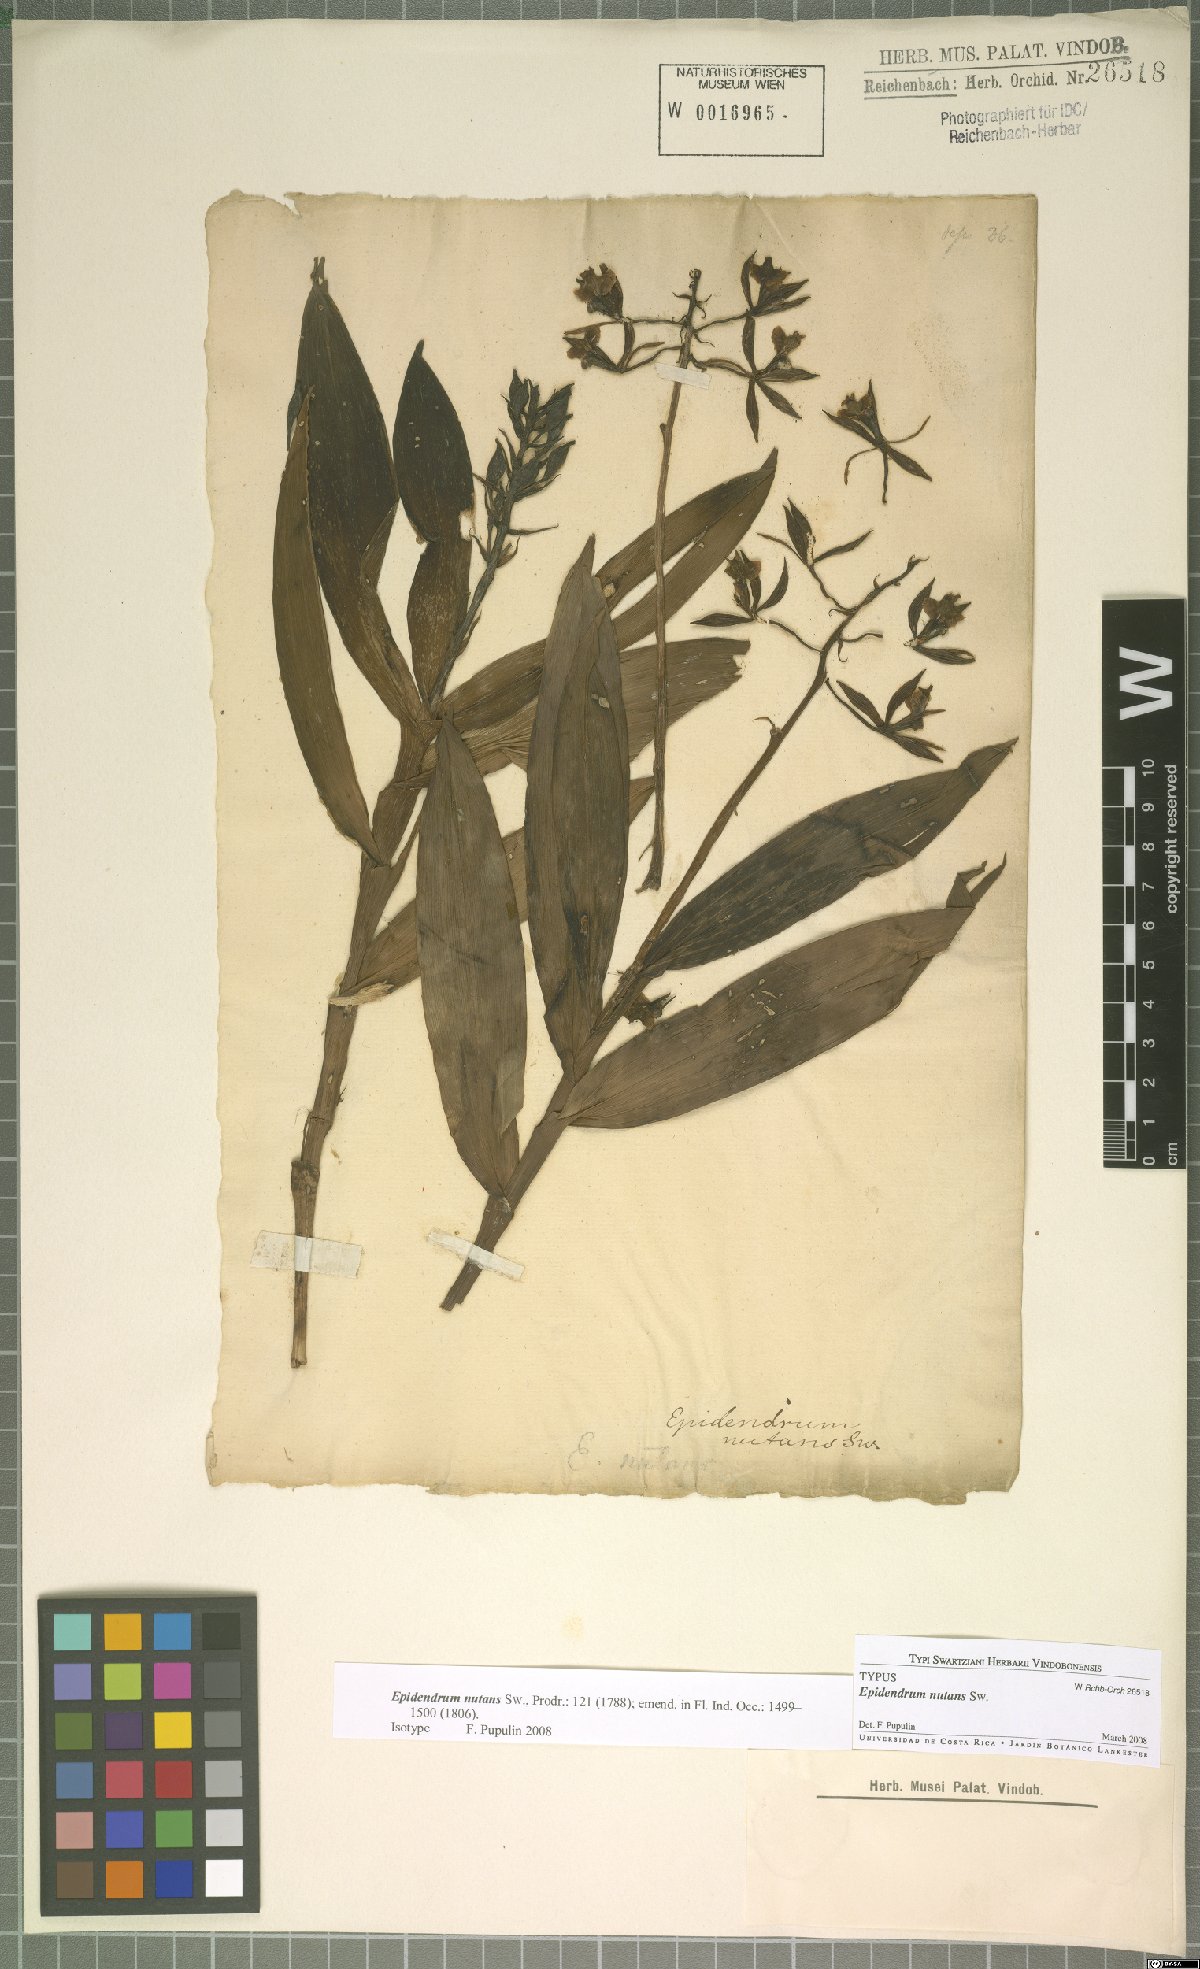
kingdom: Plantae
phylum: Tracheophyta
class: Liliopsida
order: Asparagales
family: Orchidaceae
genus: Epidendrum
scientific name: Epidendrum nutans
